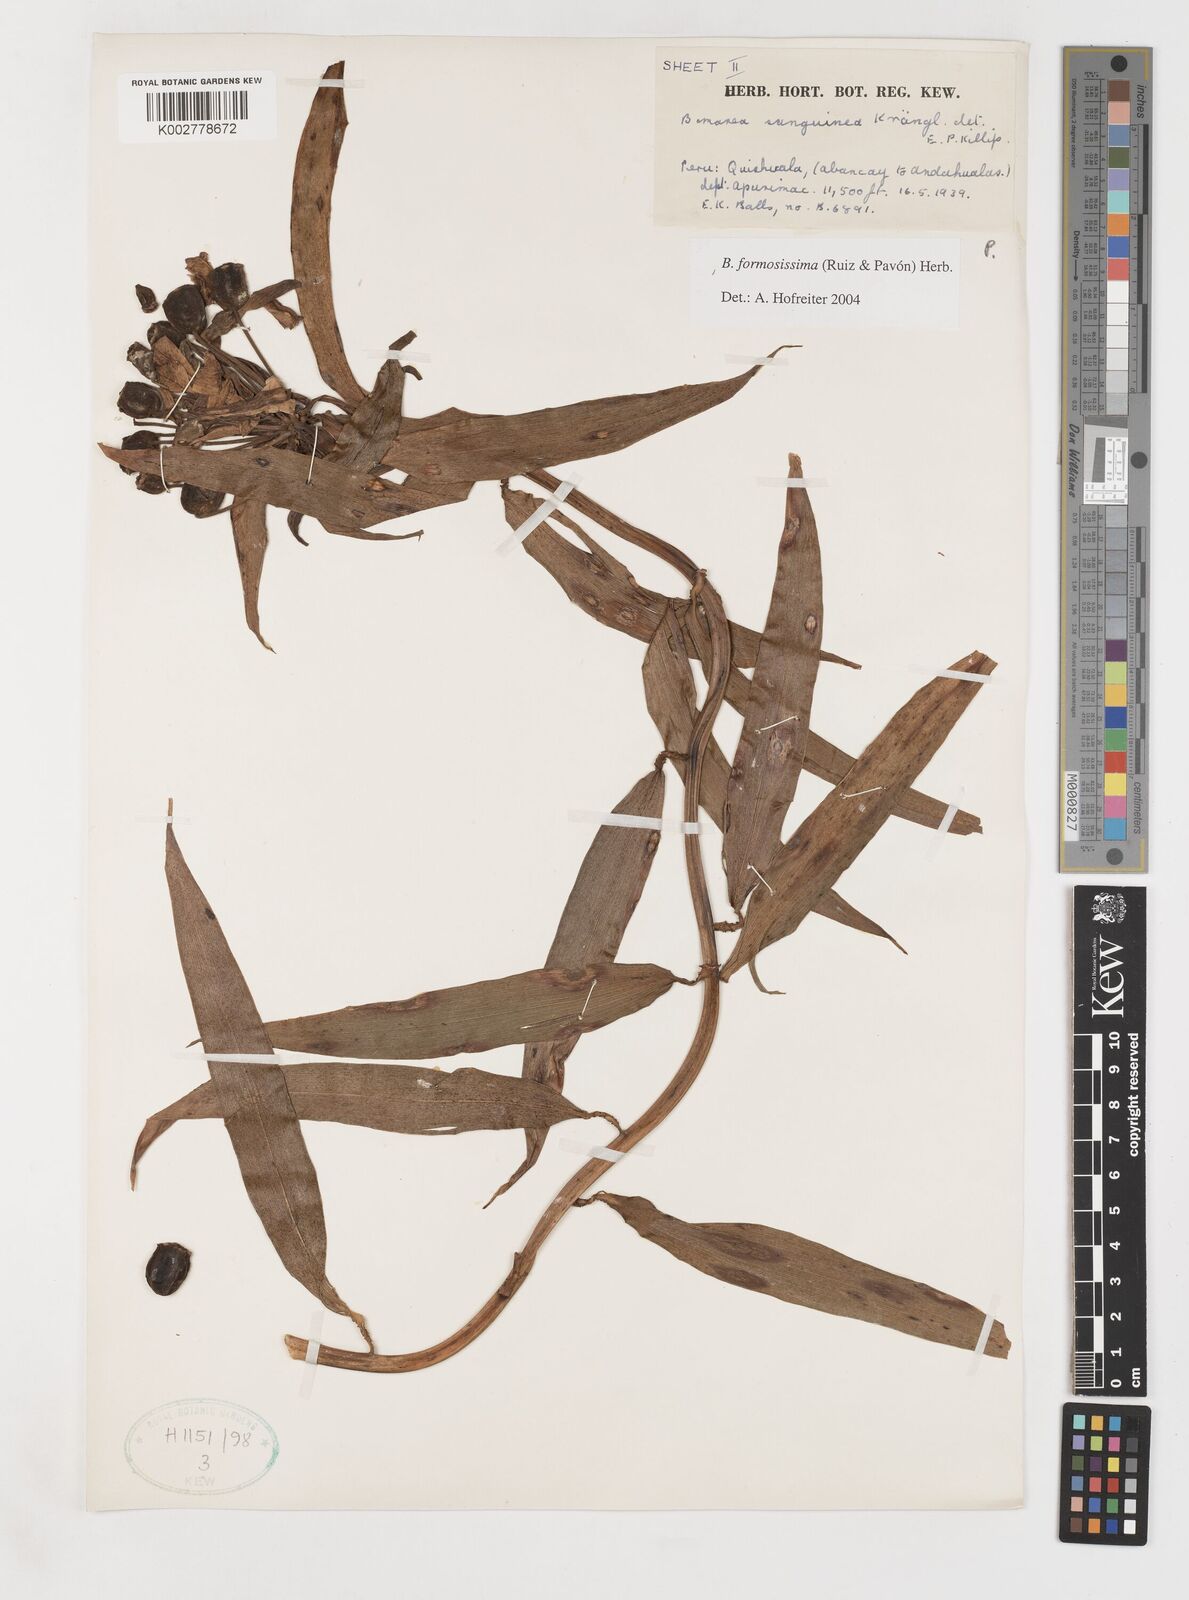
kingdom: Plantae
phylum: Tracheophyta
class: Liliopsida
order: Liliales
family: Alstroemeriaceae
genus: Bomarea
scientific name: Bomarea formosissima
